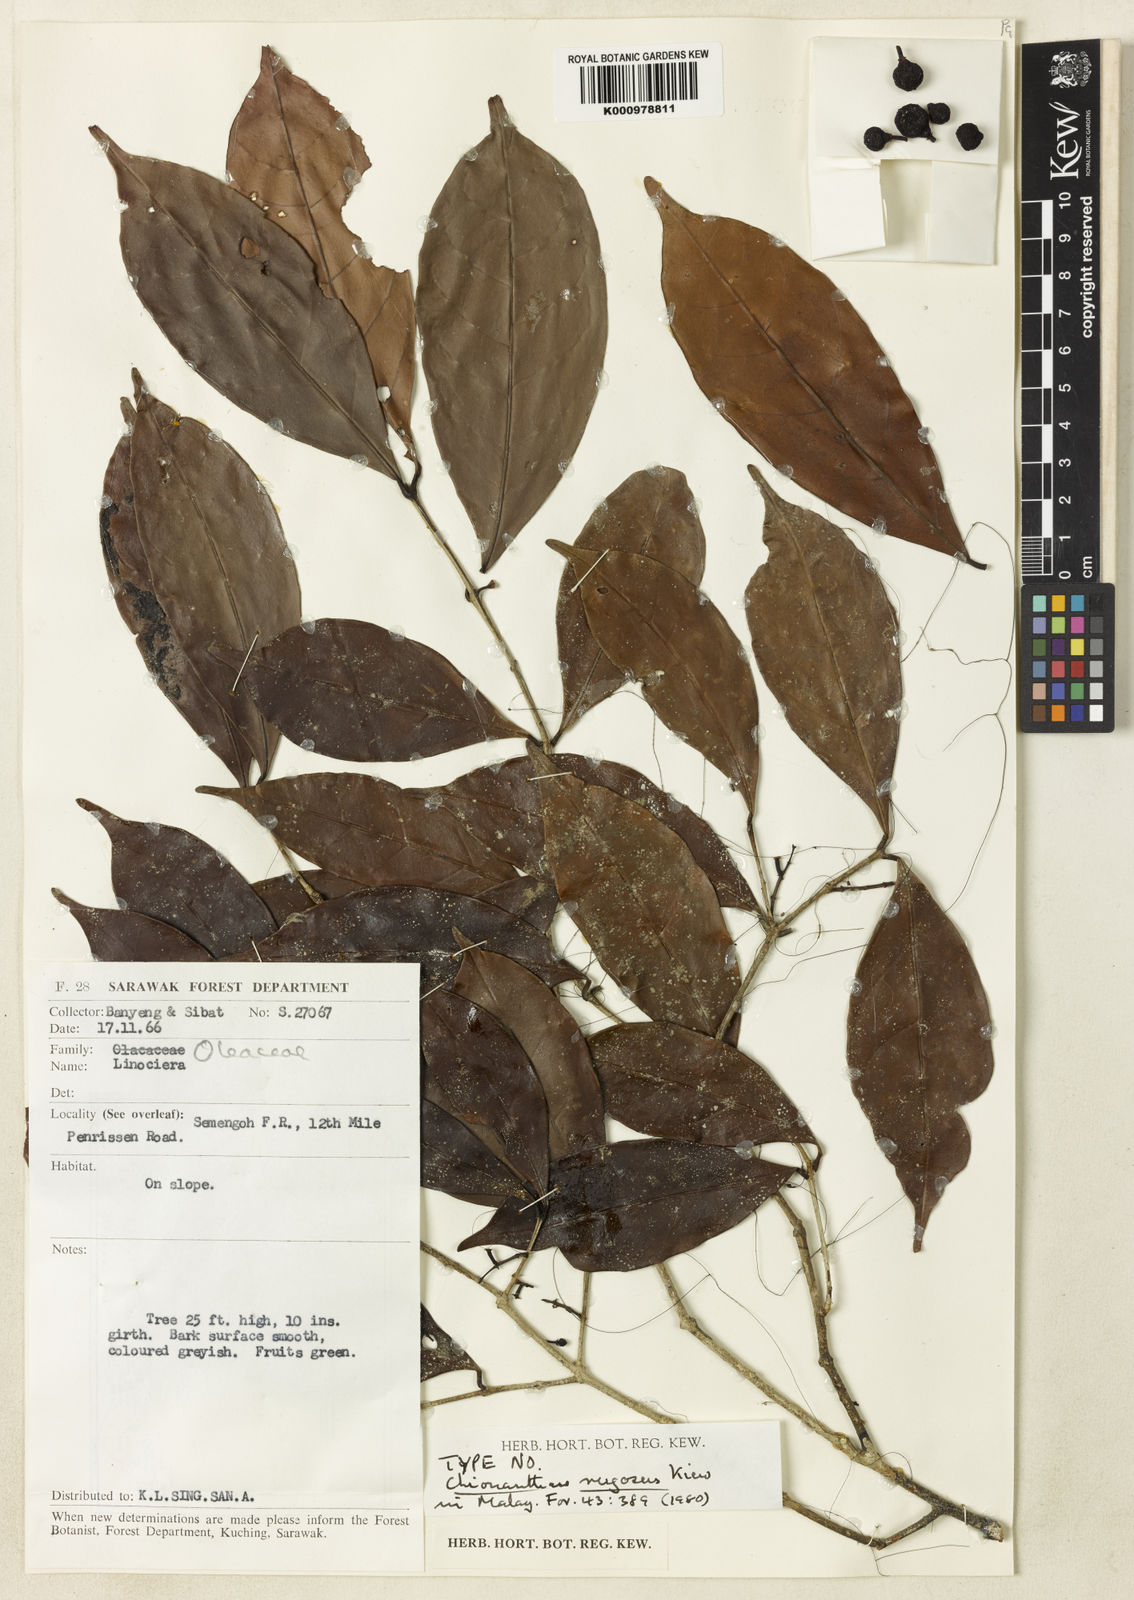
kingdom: Plantae
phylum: Tracheophyta
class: Magnoliopsida
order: Lamiales
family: Oleaceae
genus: Chionanthus
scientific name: Chionanthus rugosus
